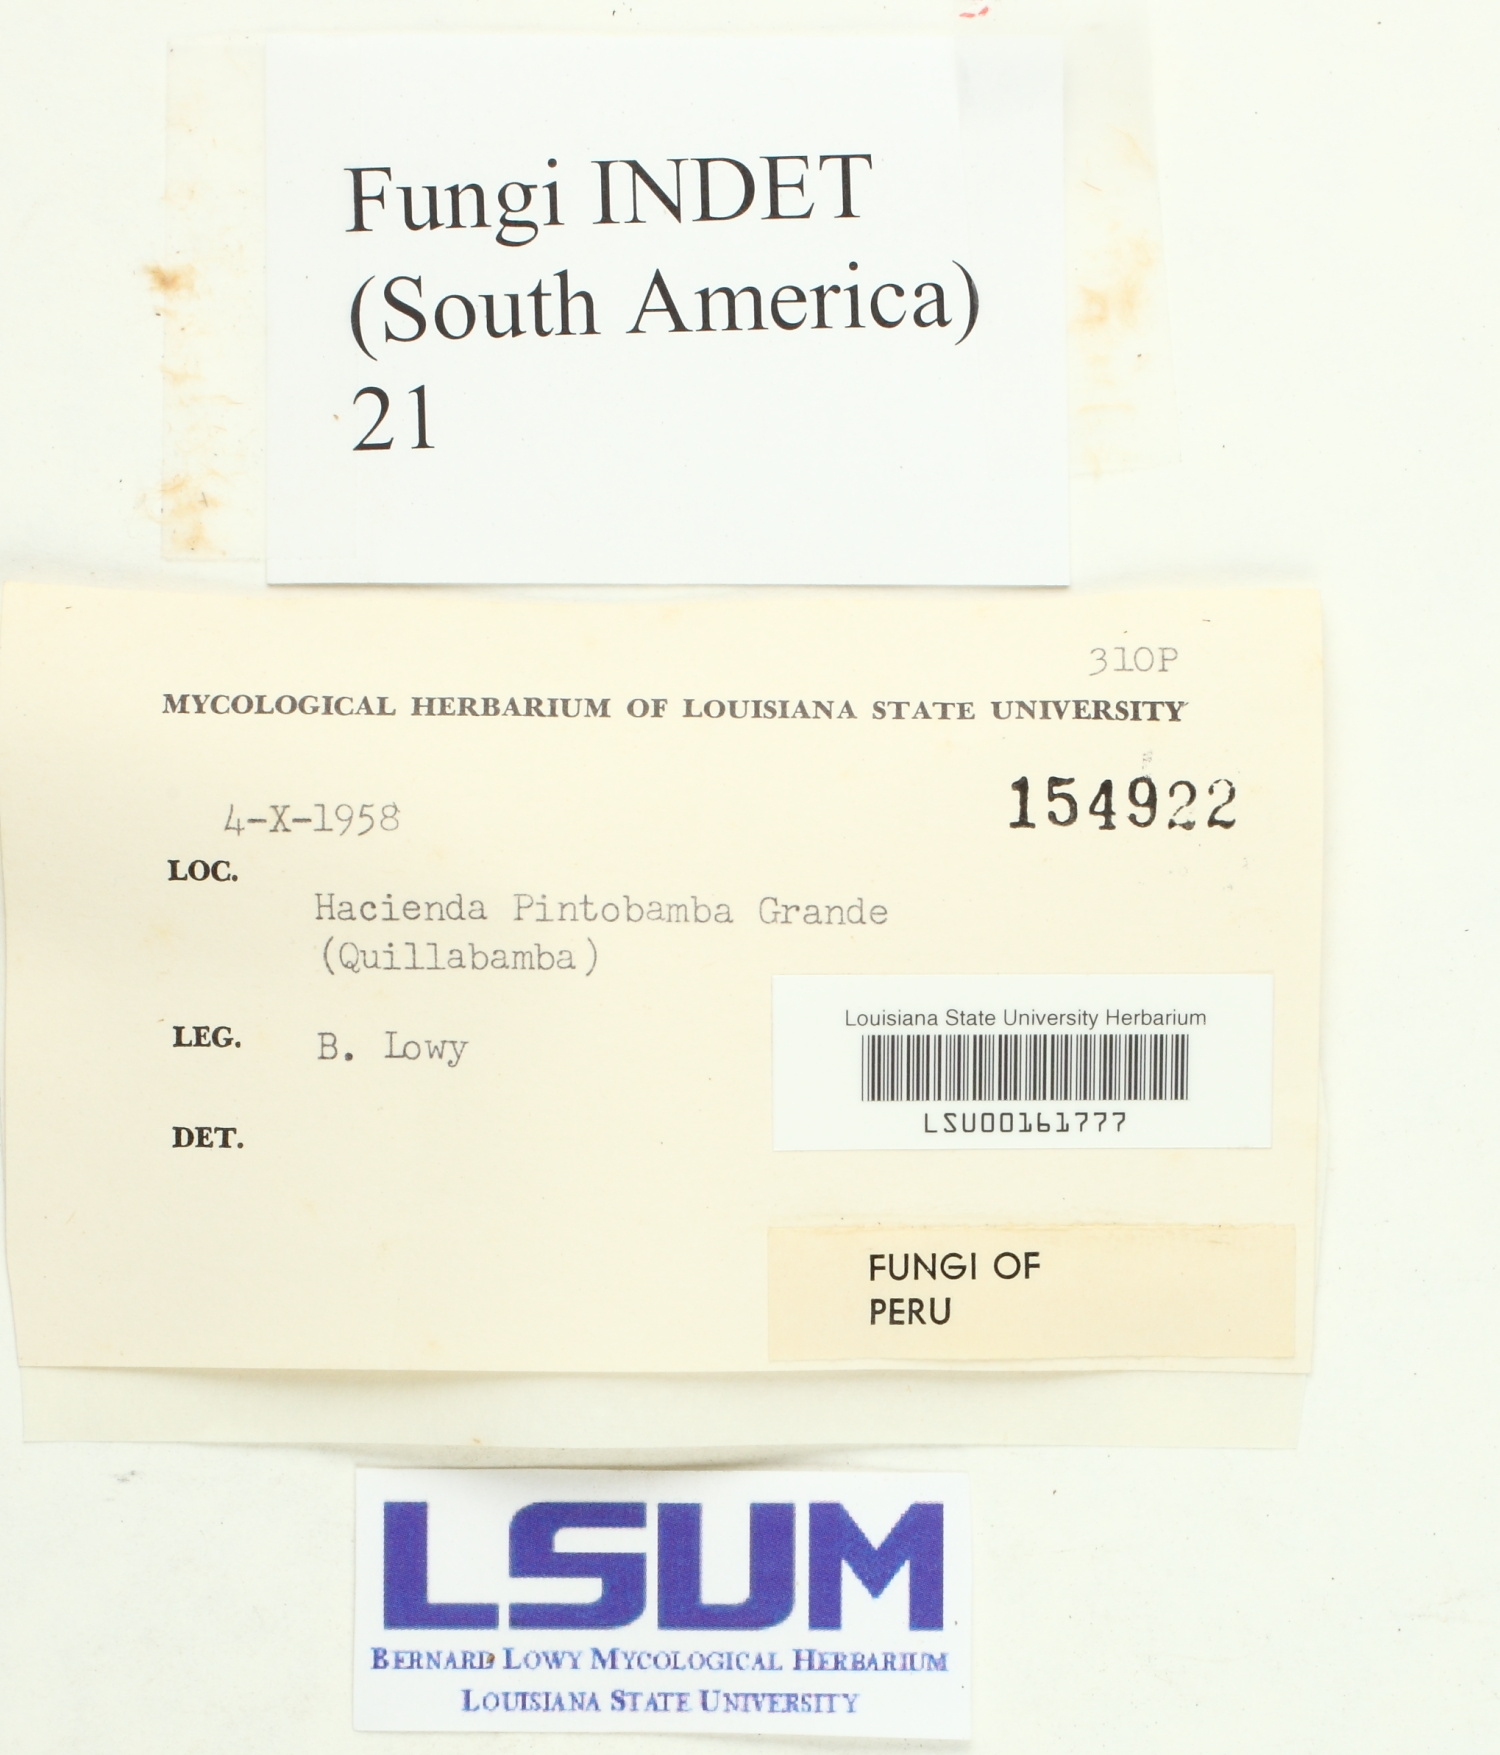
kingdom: Fungi
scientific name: Fungi
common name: Fungi
